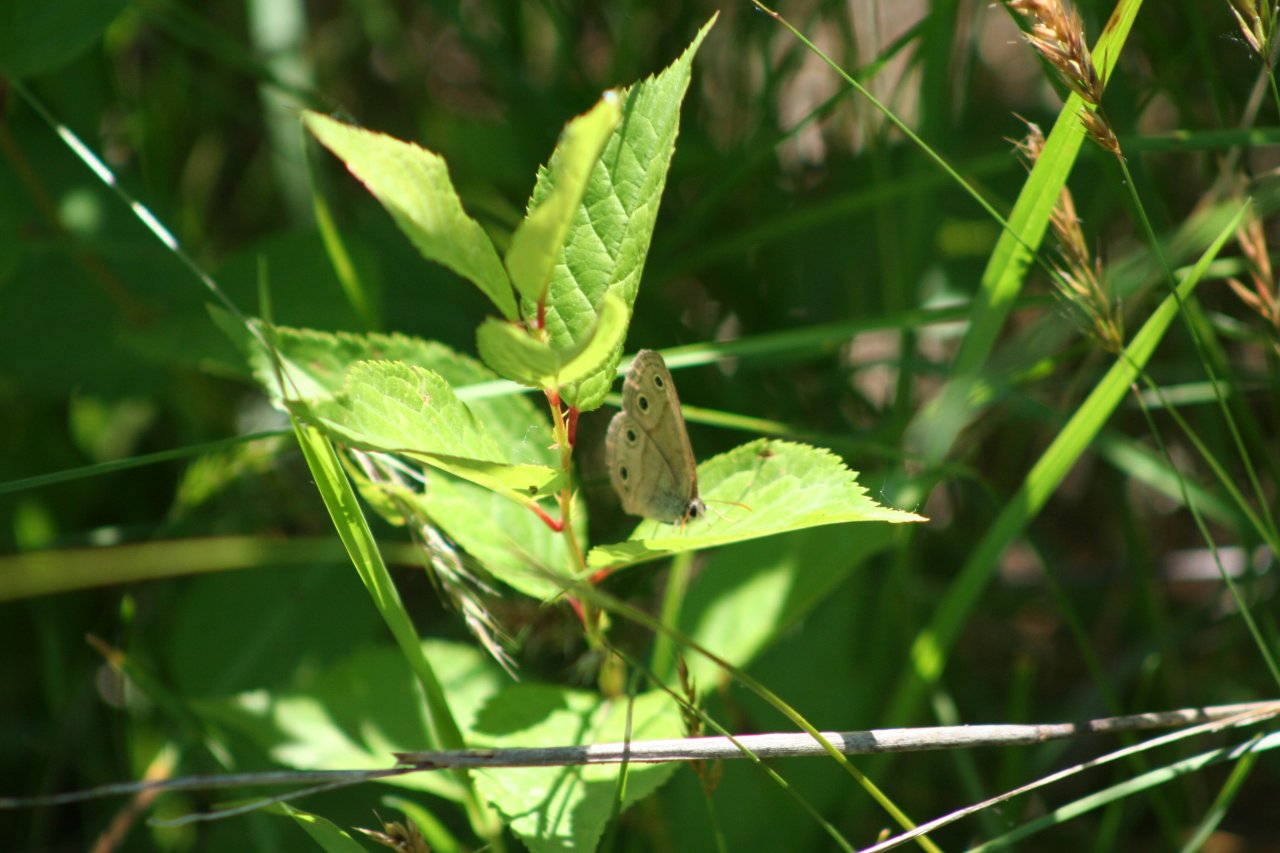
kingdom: Animalia
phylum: Arthropoda
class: Insecta
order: Lepidoptera
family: Nymphalidae
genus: Euptychia
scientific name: Euptychia cymela
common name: Little Wood Satyr
